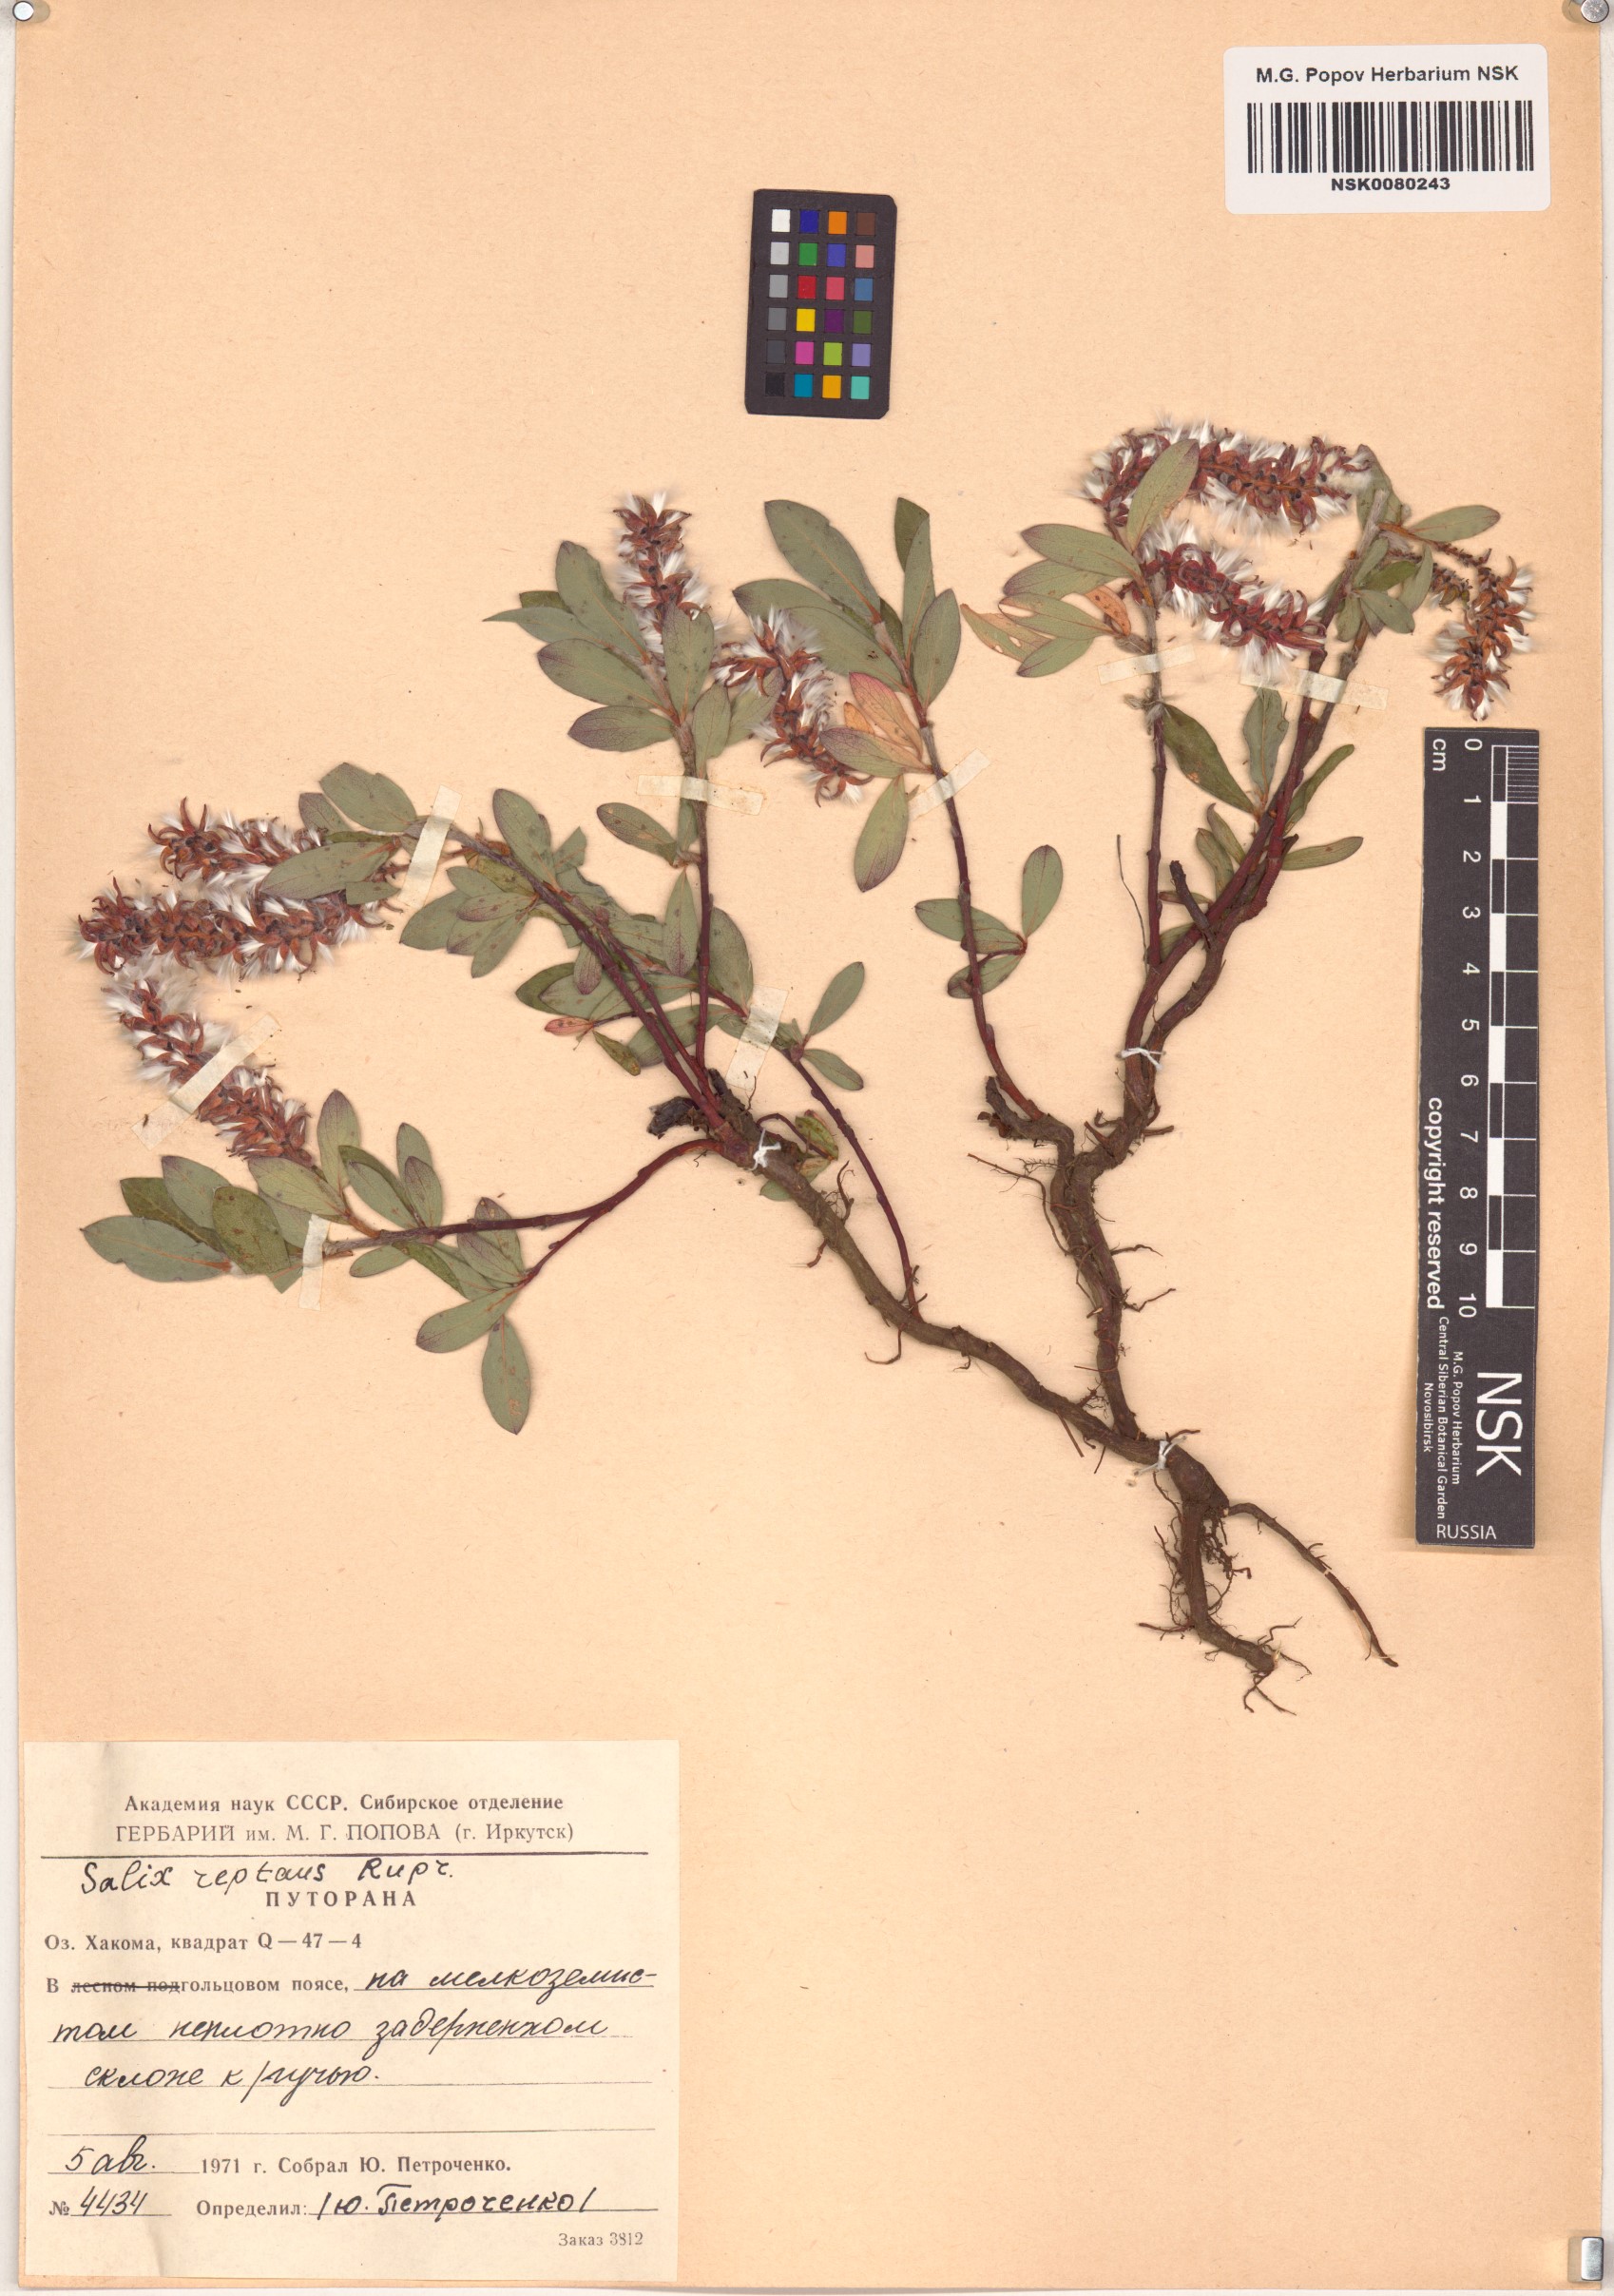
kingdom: Plantae
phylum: Tracheophyta
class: Magnoliopsida
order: Malpighiales
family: Salicaceae
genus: Salix
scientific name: Salix reptans
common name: Arctic creeping willow
